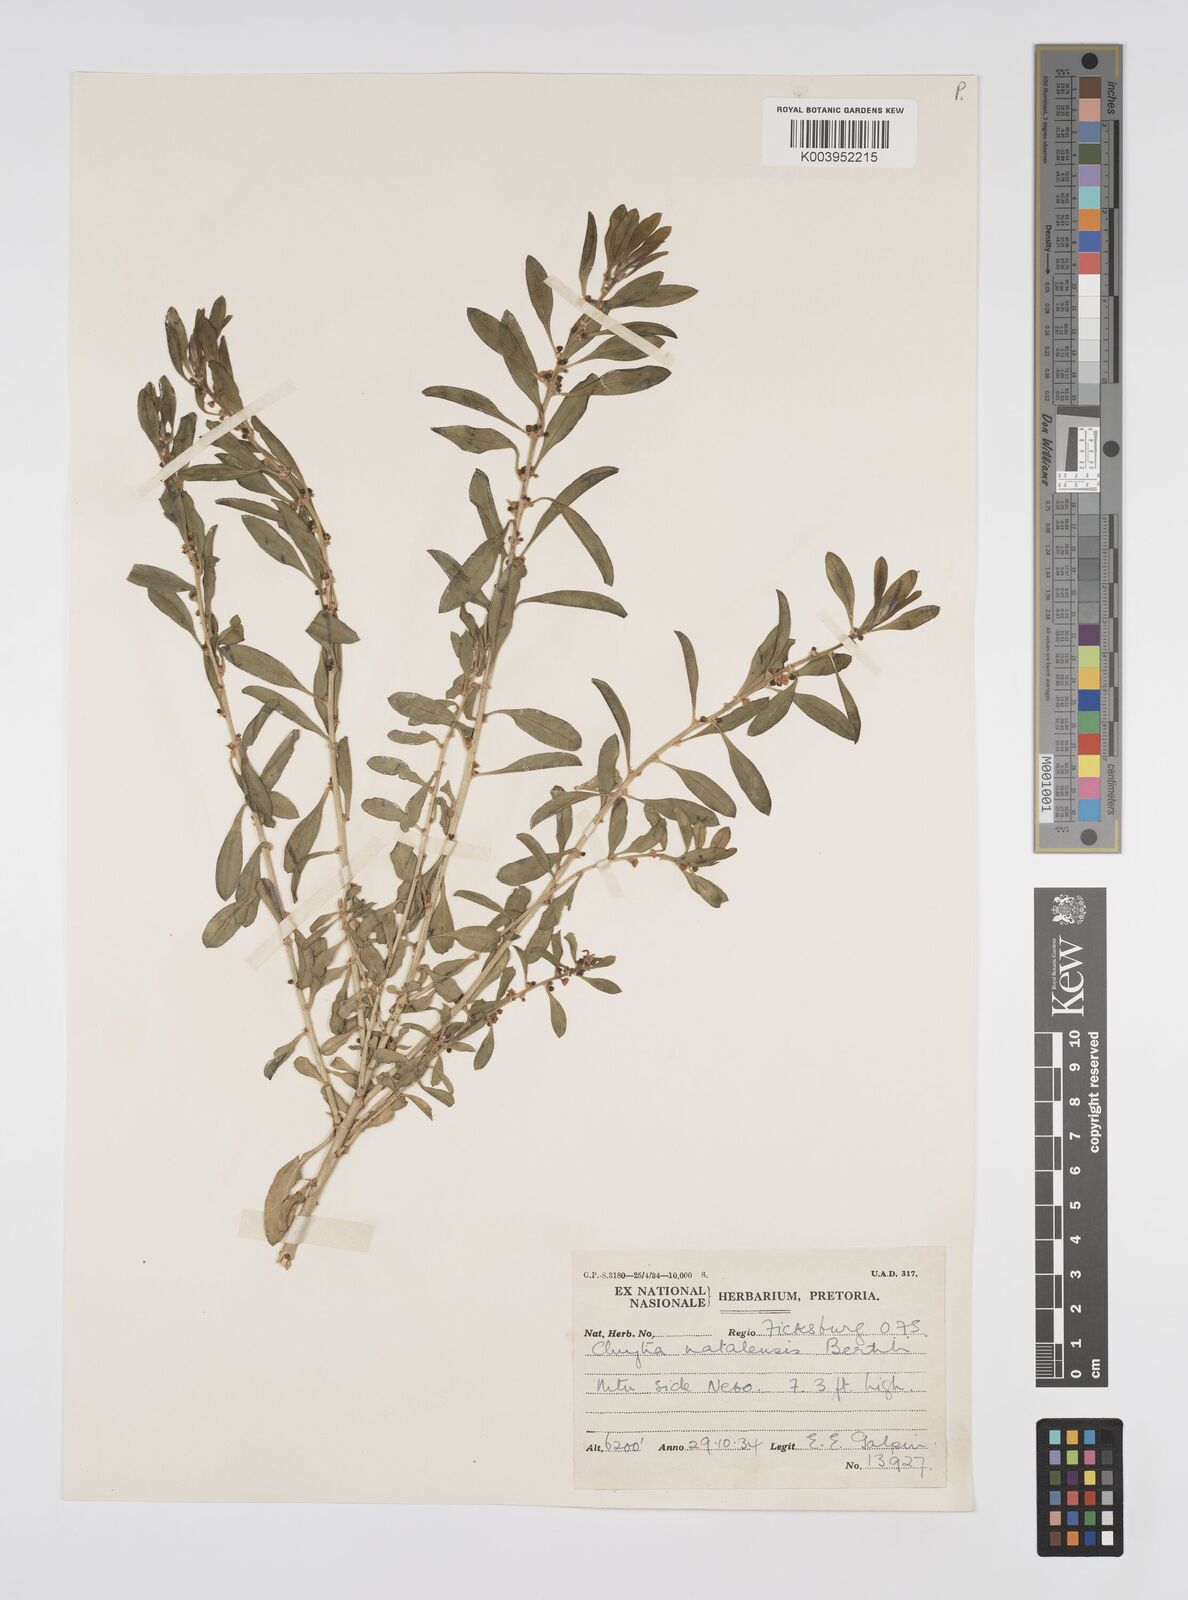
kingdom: Plantae
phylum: Tracheophyta
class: Magnoliopsida
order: Malpighiales
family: Peraceae
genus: Clutia
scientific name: Clutia natalensis
